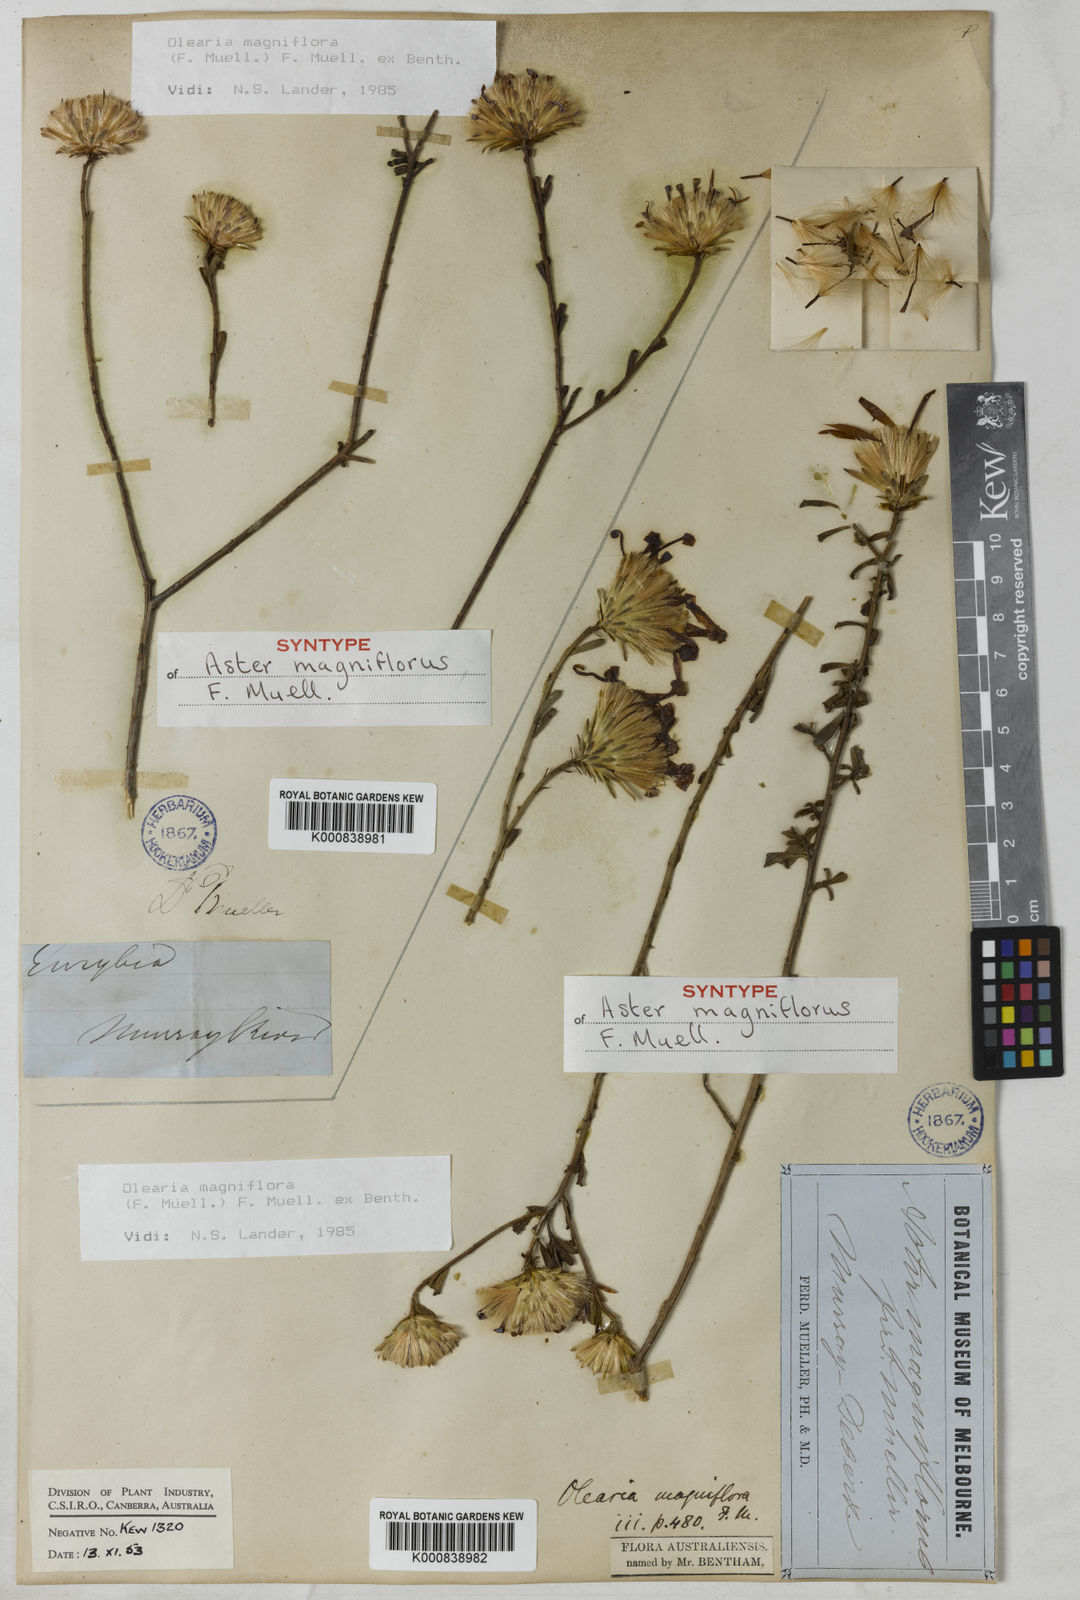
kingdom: Plantae
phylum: Tracheophyta
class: Magnoliopsida
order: Asterales
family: Asteraceae
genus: Walsholaria
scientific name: Walsholaria magniflora
